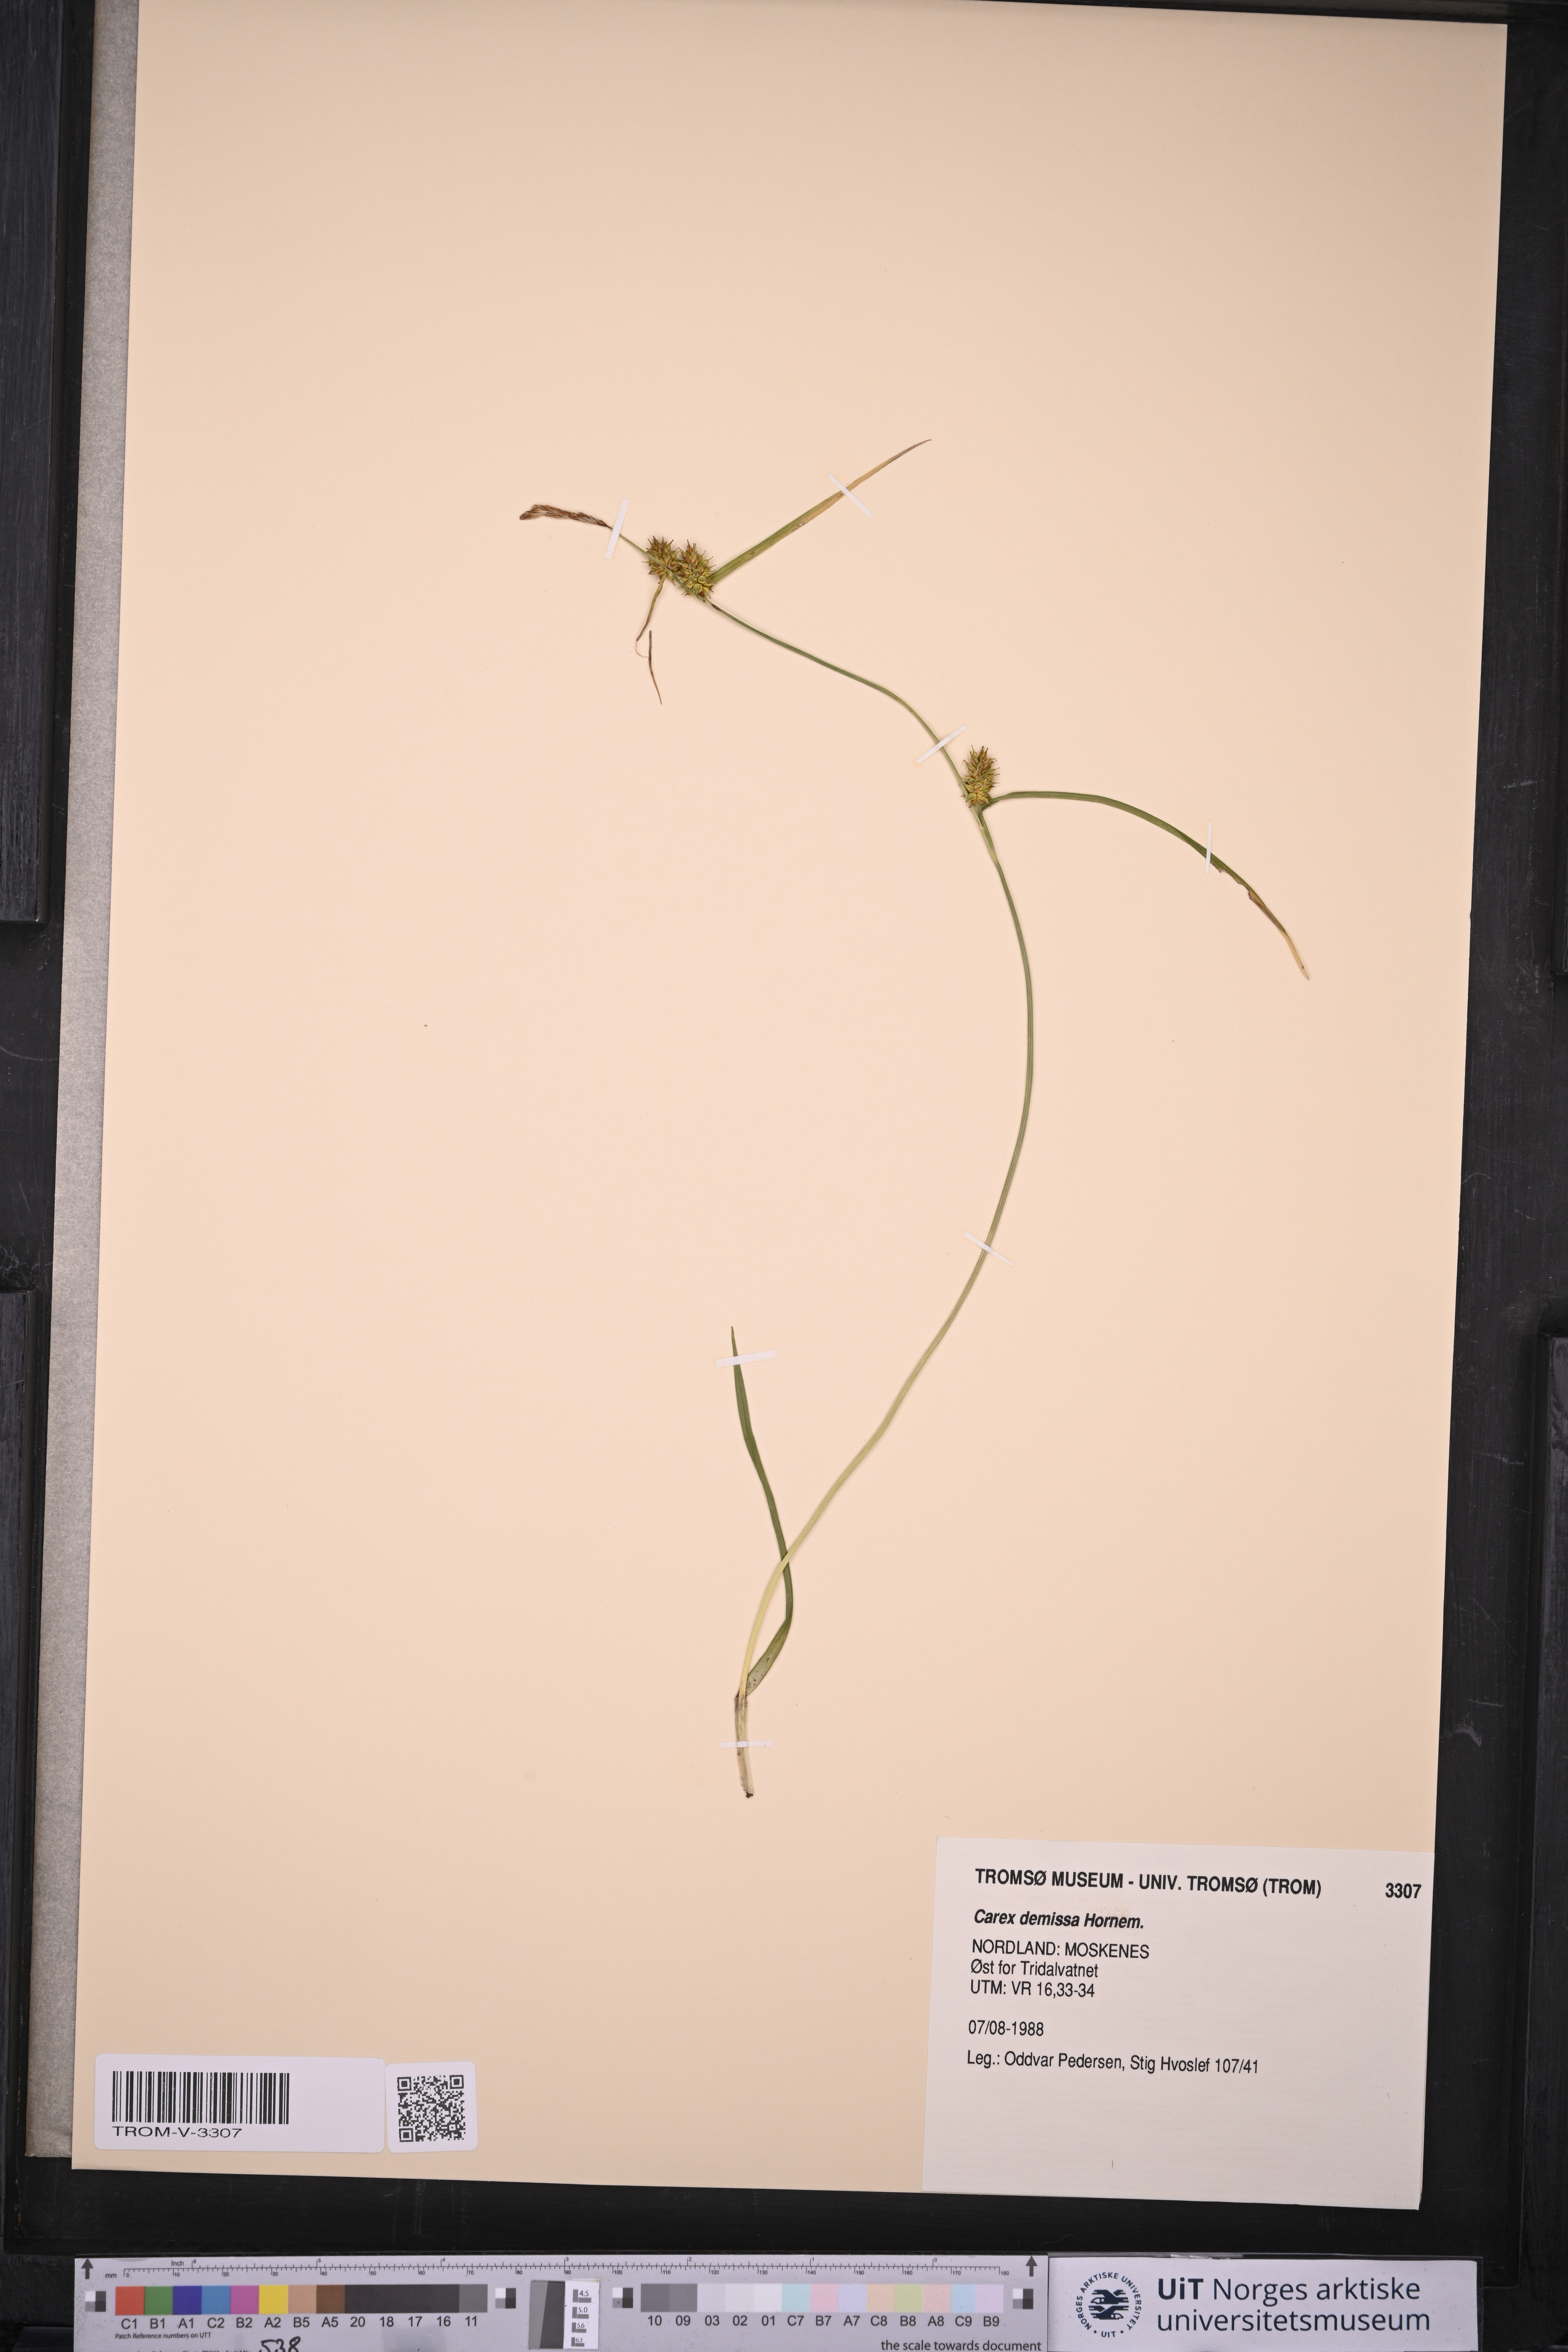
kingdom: Plantae
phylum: Tracheophyta
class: Liliopsida
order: Poales
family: Cyperaceae
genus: Carex
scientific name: Carex demissa
